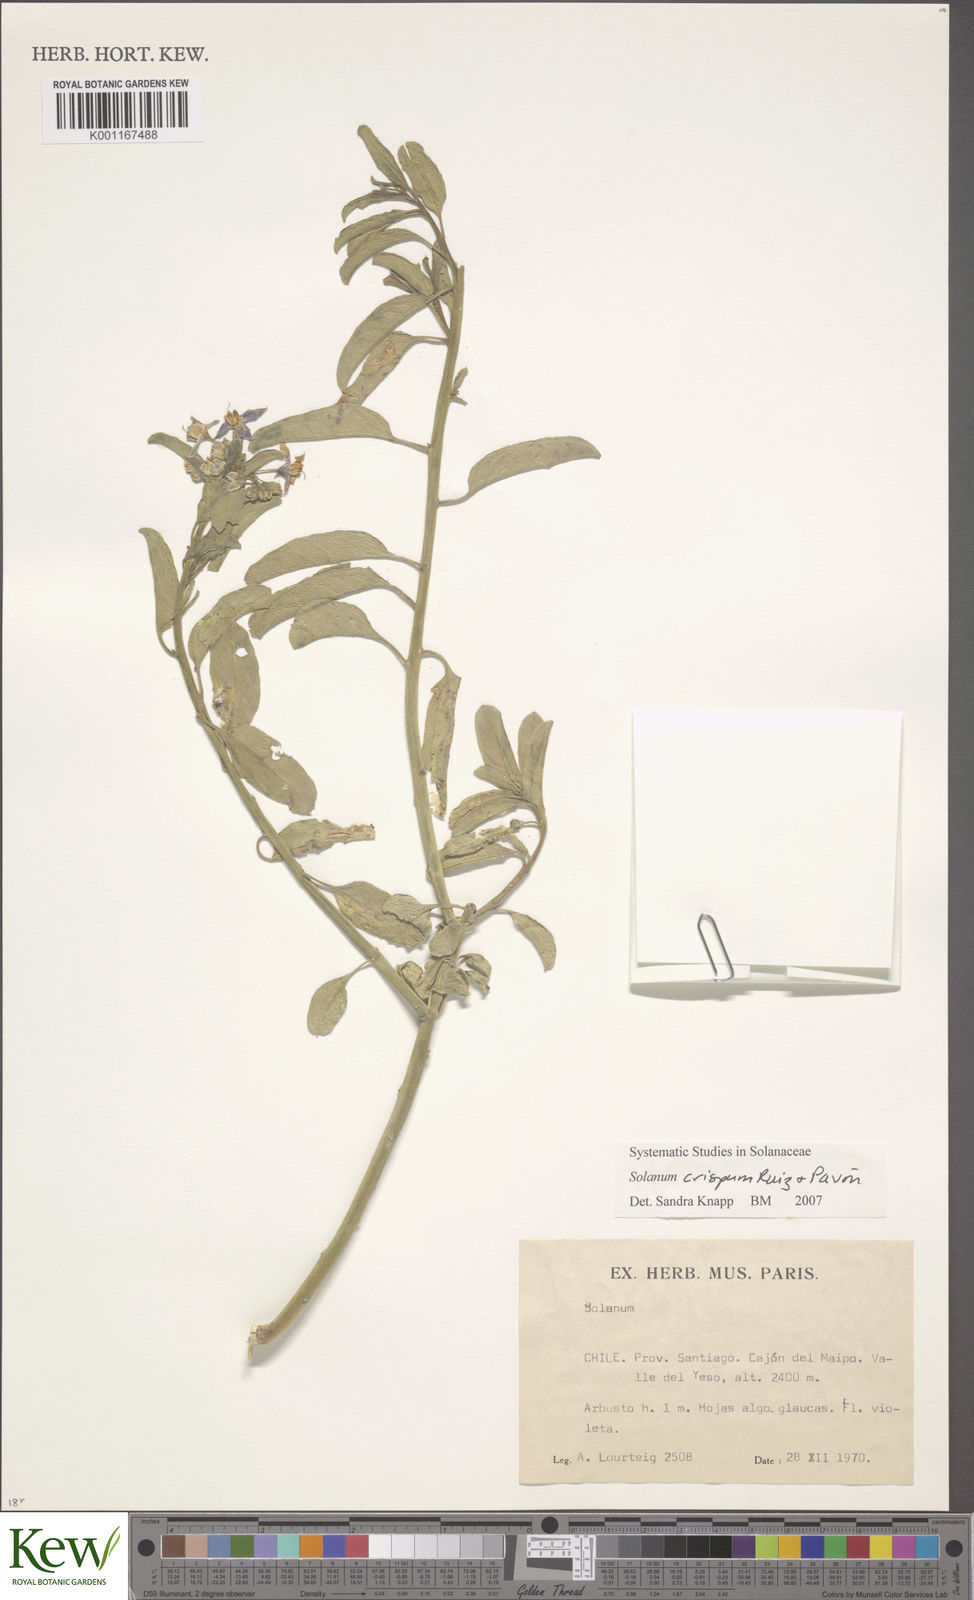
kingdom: Plantae
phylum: Tracheophyta
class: Magnoliopsida
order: Solanales
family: Solanaceae
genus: Solanum
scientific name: Solanum crispum
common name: Chilean nightshade
